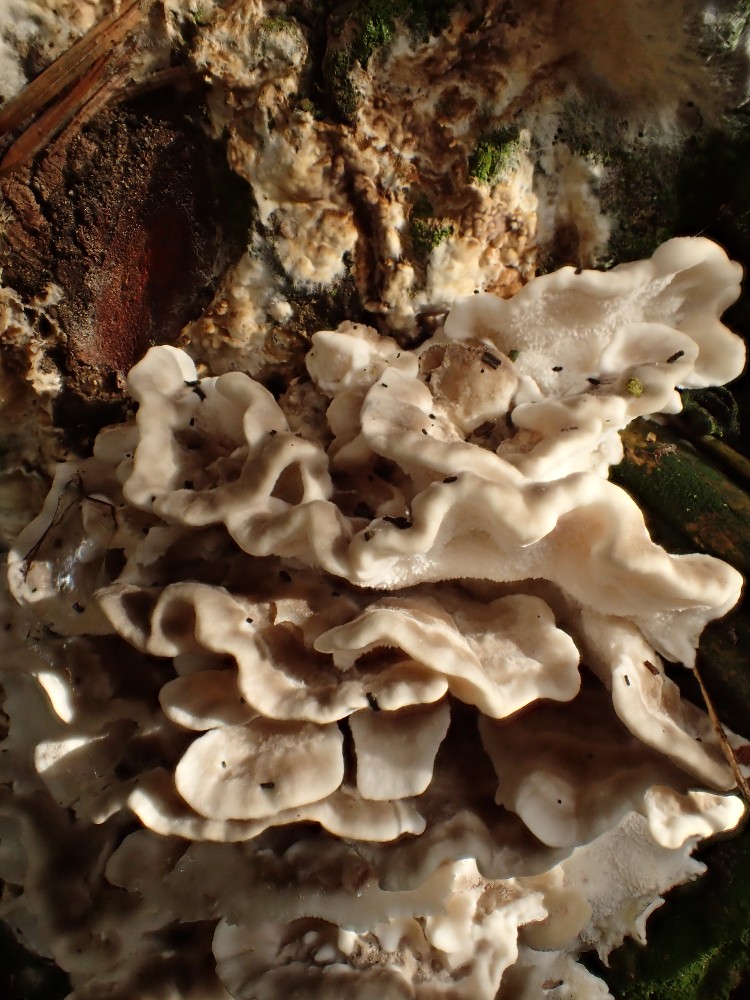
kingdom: Fungi
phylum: Basidiomycota
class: Agaricomycetes
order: Polyporales
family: Dacryobolaceae
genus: Postia
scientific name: Postia balsamea
